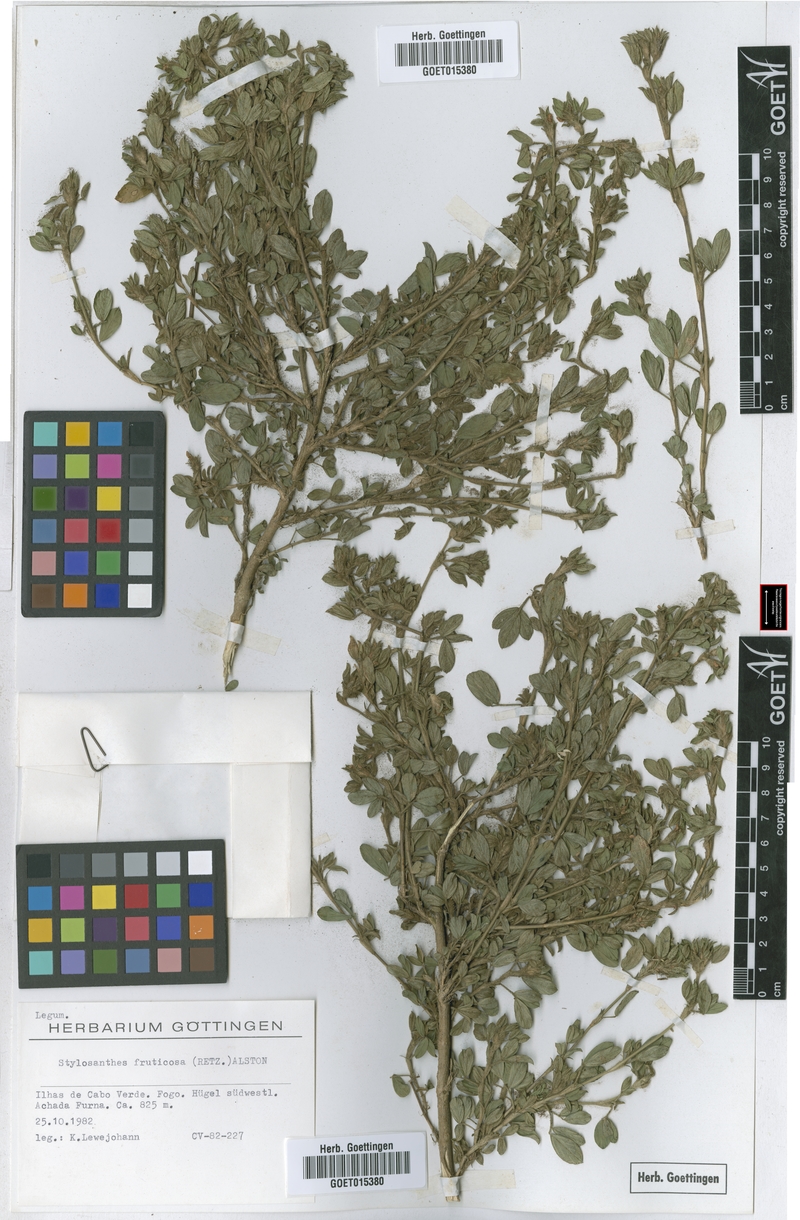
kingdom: Plantae
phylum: Tracheophyta
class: Magnoliopsida
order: Fabales
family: Fabaceae
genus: Stylosanthes
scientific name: Stylosanthes fruticosa
